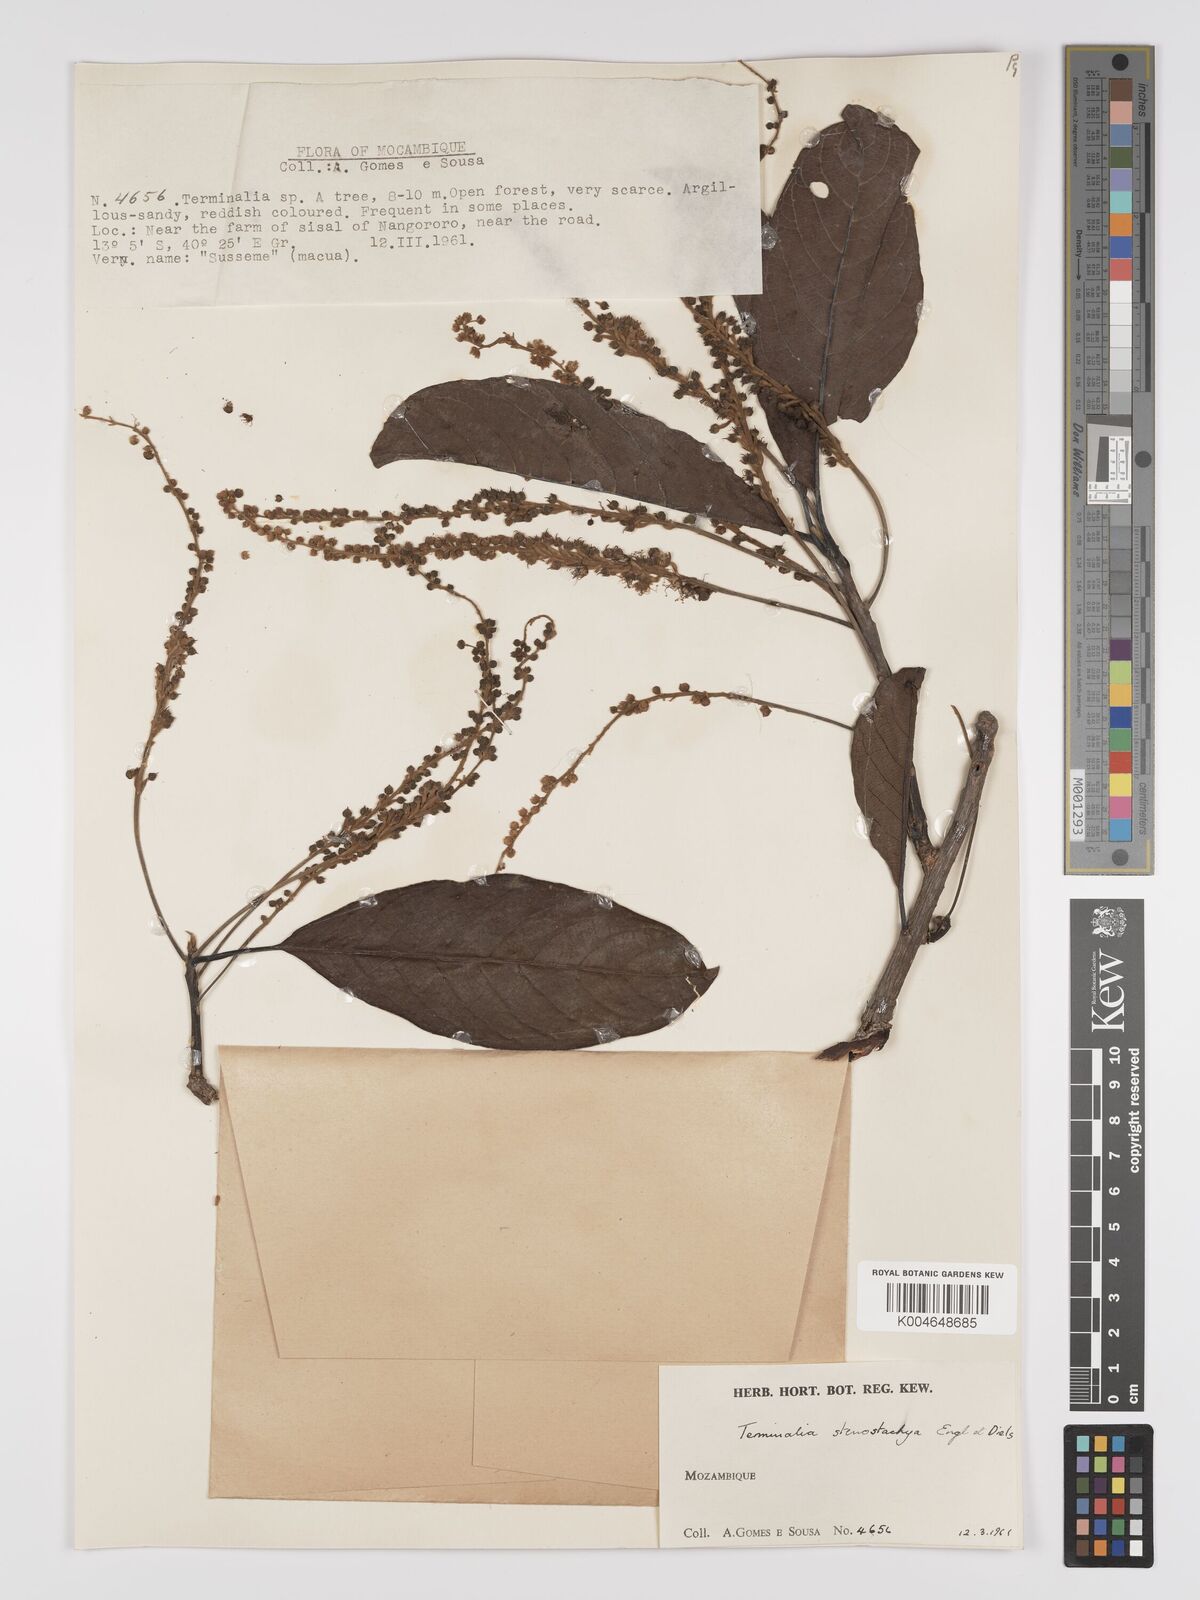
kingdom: Plantae
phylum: Tracheophyta
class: Magnoliopsida
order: Myrtales
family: Combretaceae
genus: Terminalia
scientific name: Terminalia stenostachya
